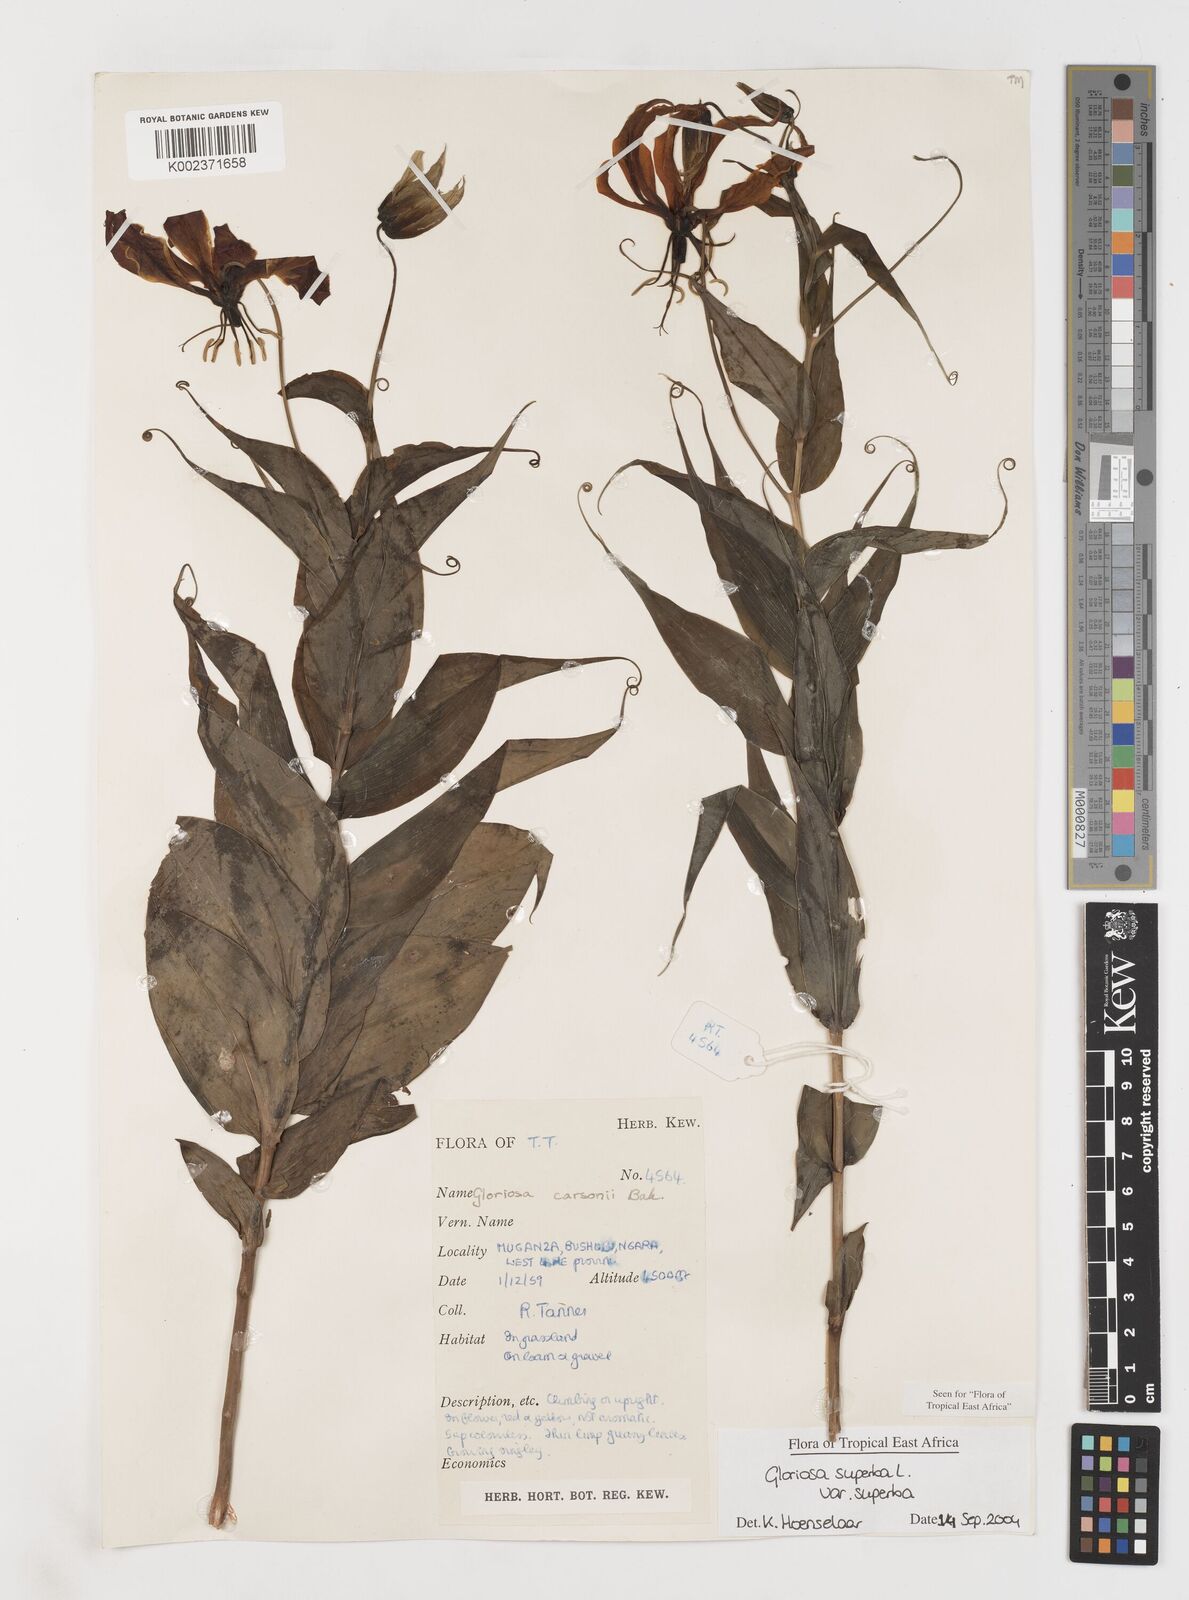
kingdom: Plantae
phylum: Tracheophyta
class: Liliopsida
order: Liliales
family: Colchicaceae
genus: Gloriosa
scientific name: Gloriosa simplex
